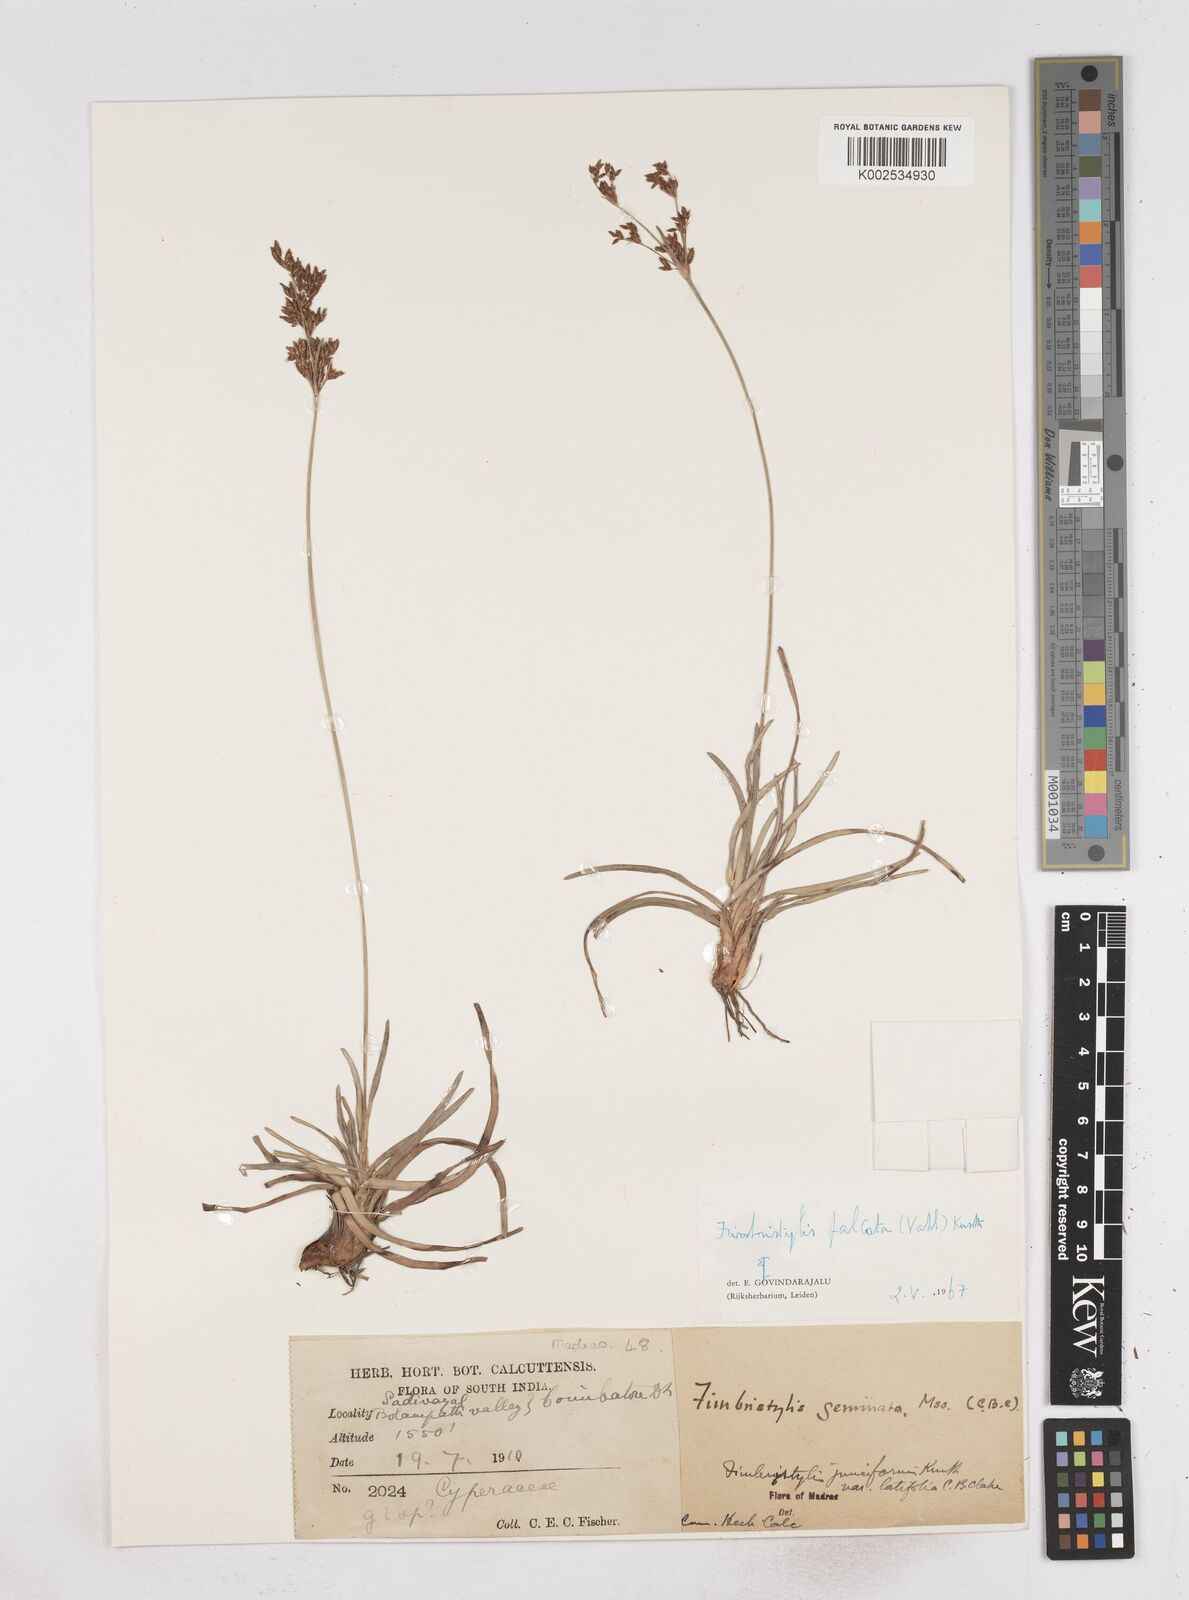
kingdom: Plantae
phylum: Tracheophyta
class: Liliopsida
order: Poales
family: Cyperaceae
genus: Fimbristylis
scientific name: Fimbristylis falcata
